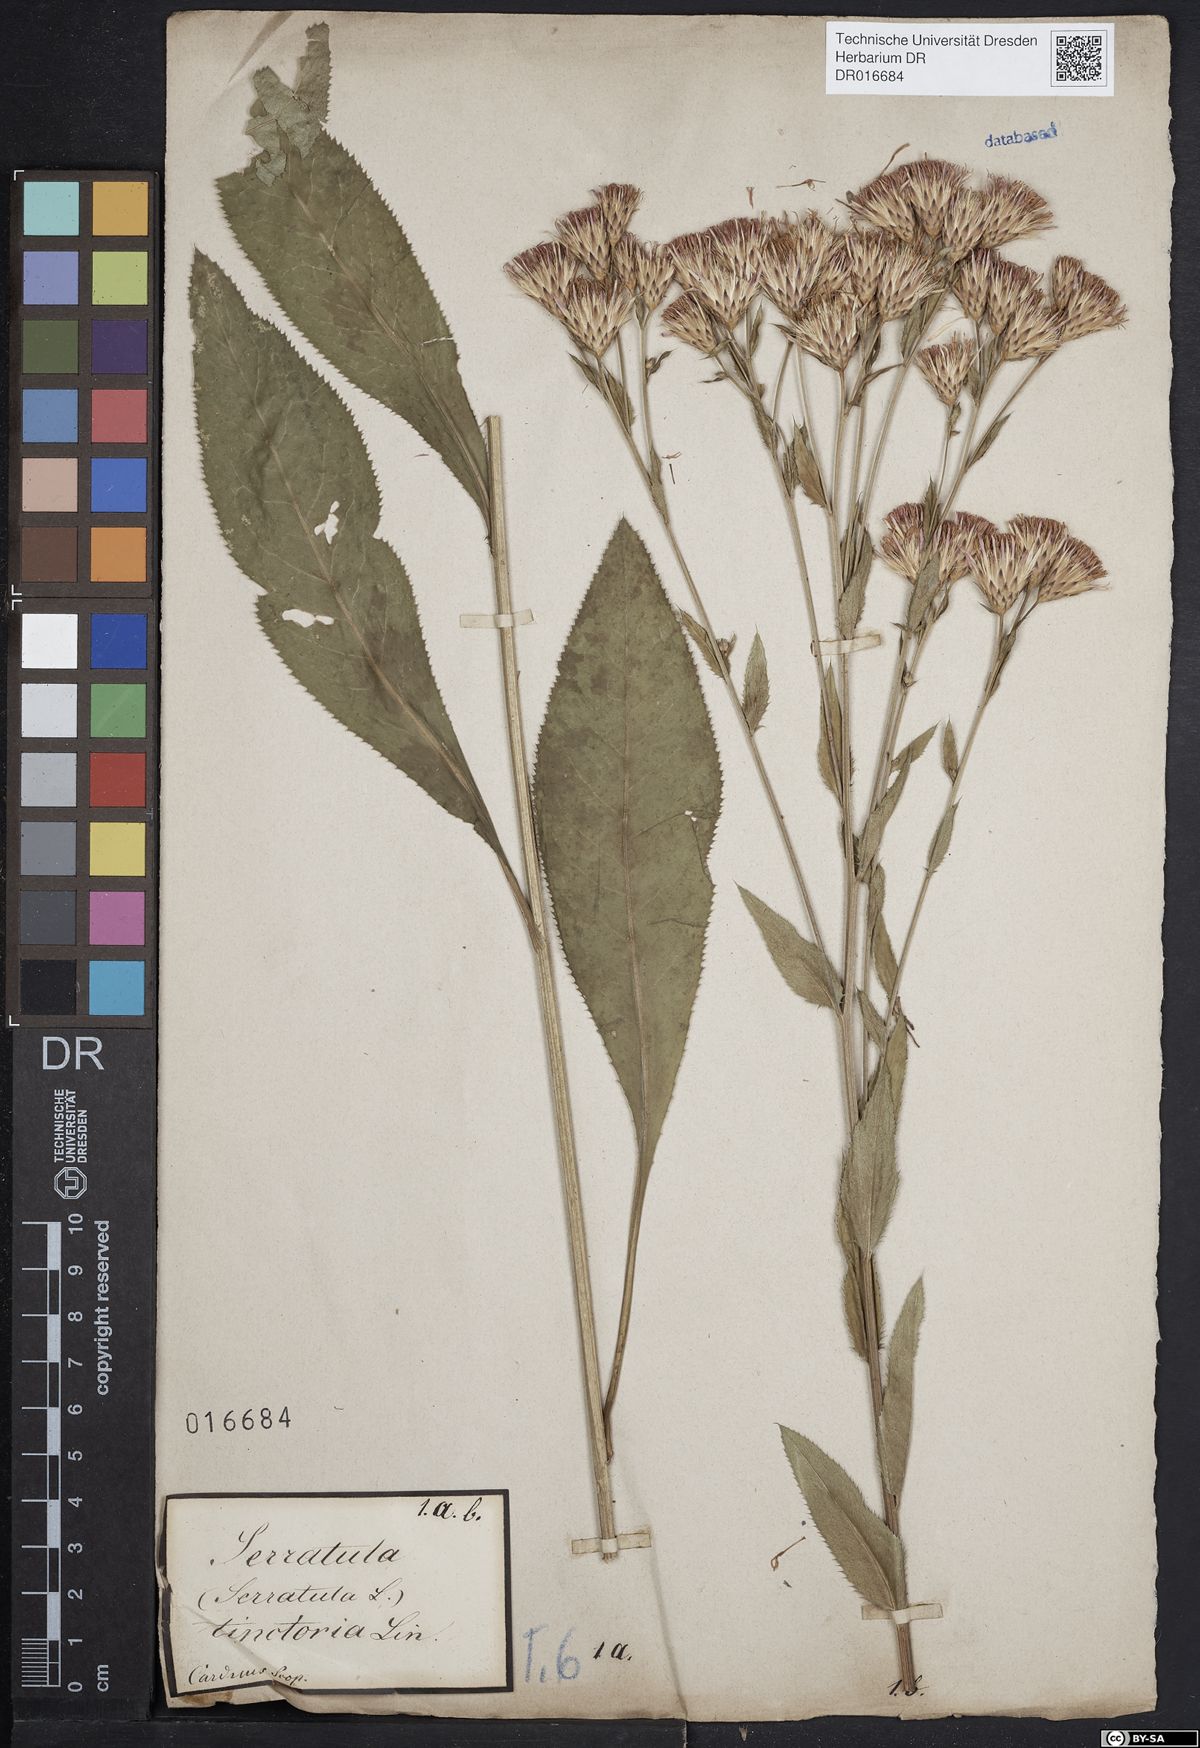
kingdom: Plantae
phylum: Tracheophyta
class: Magnoliopsida
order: Asterales
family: Asteraceae
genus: Serratula
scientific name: Serratula tinctoria
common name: Saw-wort
